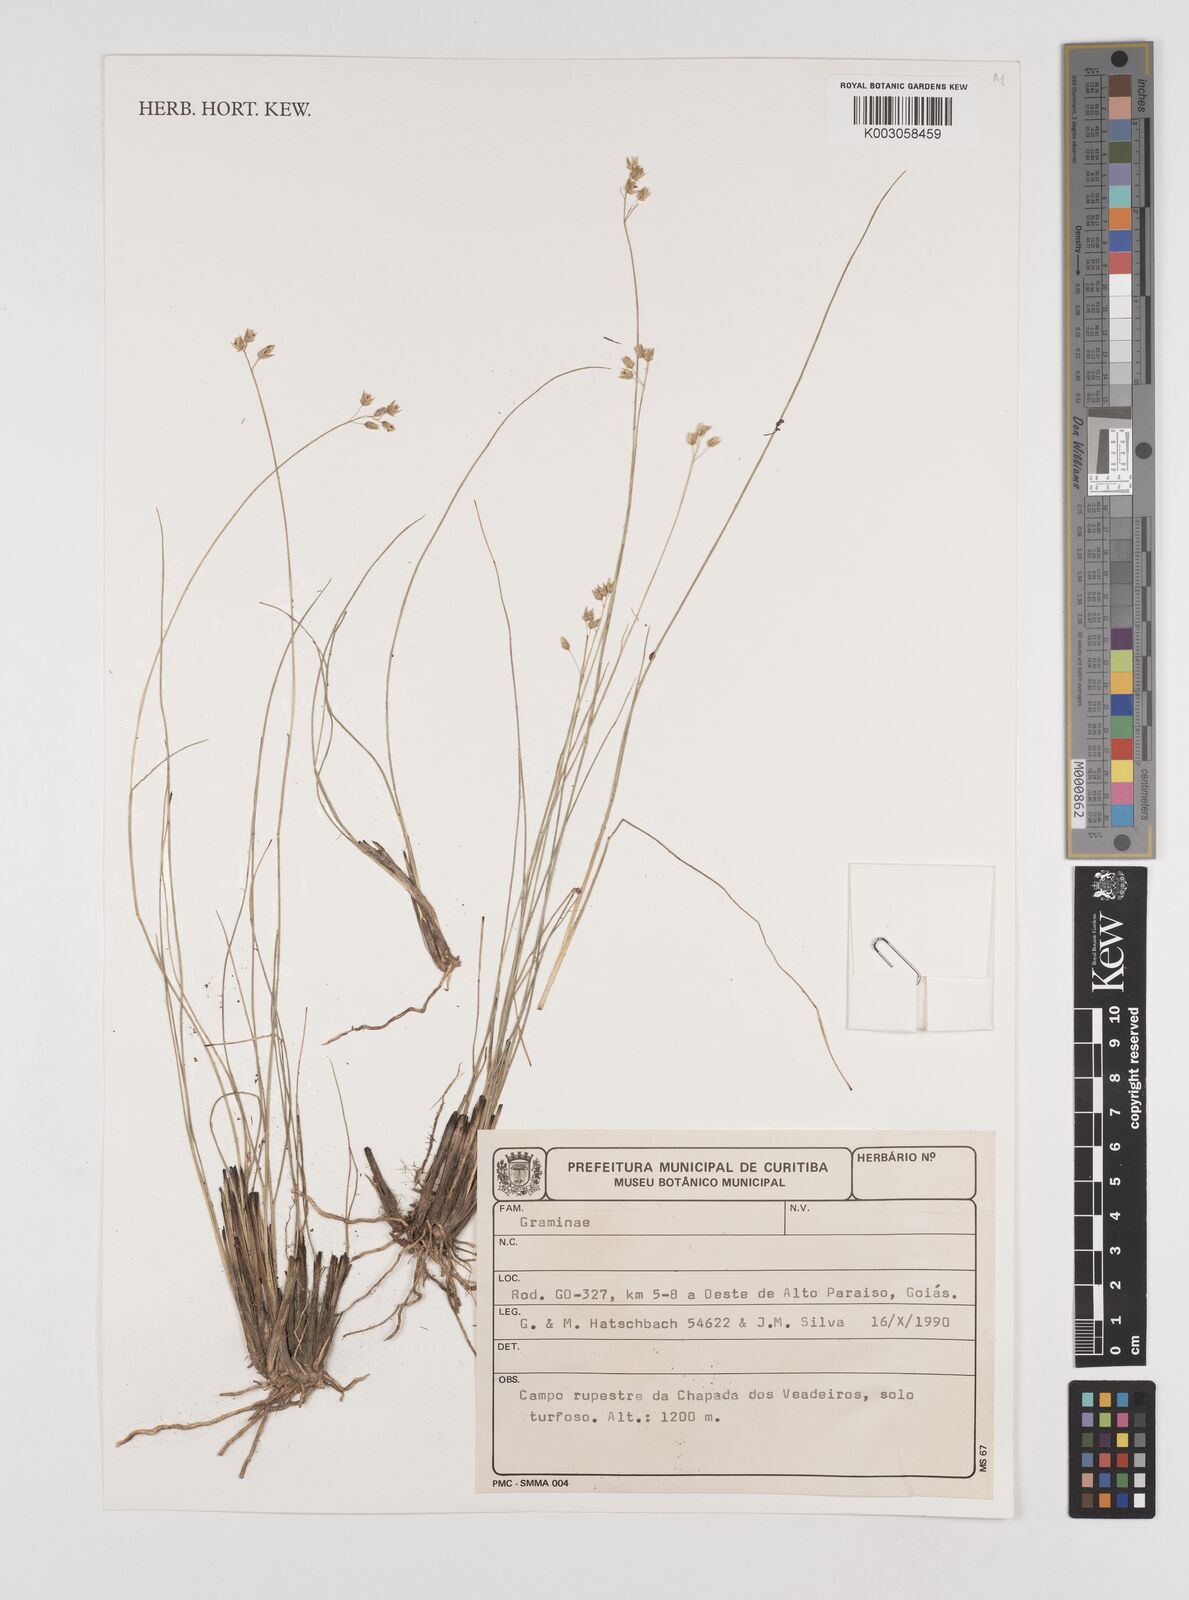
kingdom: Plantae
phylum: Tracheophyta
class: Liliopsida
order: Poales
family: Juncaceae
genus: Juncus
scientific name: Juncus
